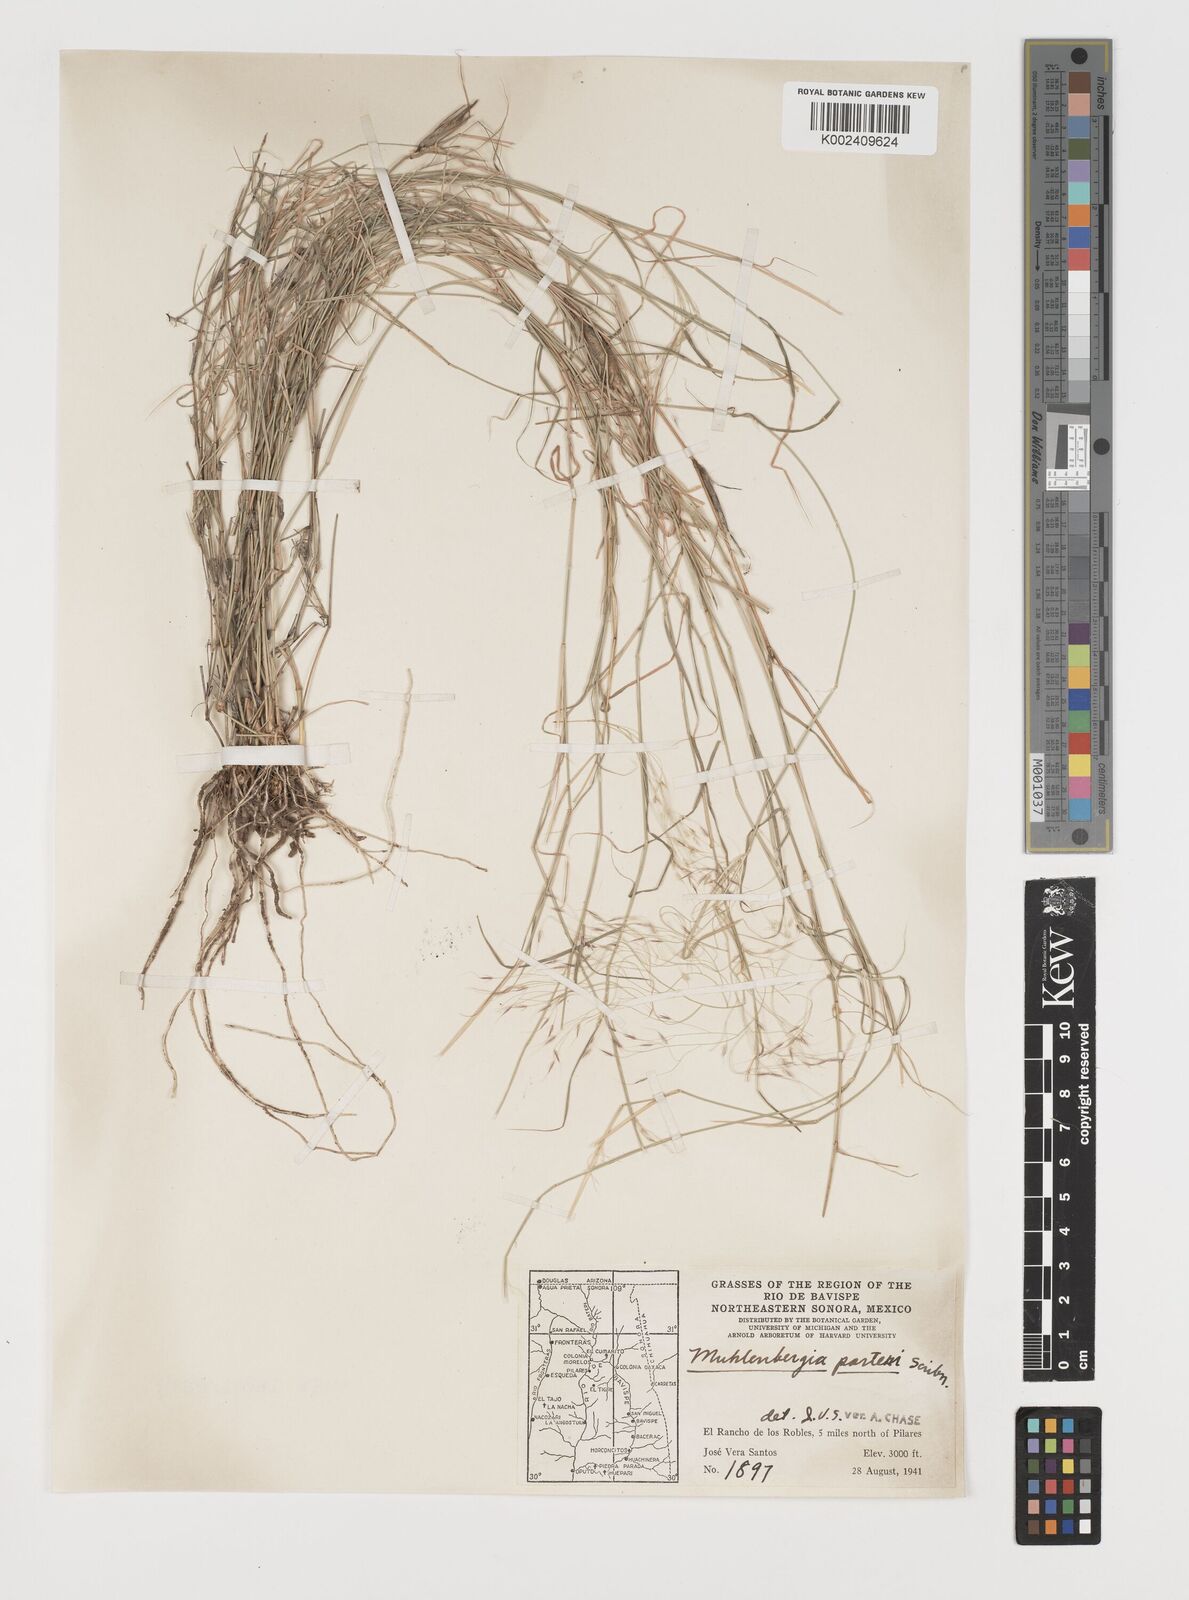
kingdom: Plantae
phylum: Tracheophyta
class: Liliopsida
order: Poales
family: Poaceae
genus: Muhlenbergia
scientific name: Muhlenbergia porteri
